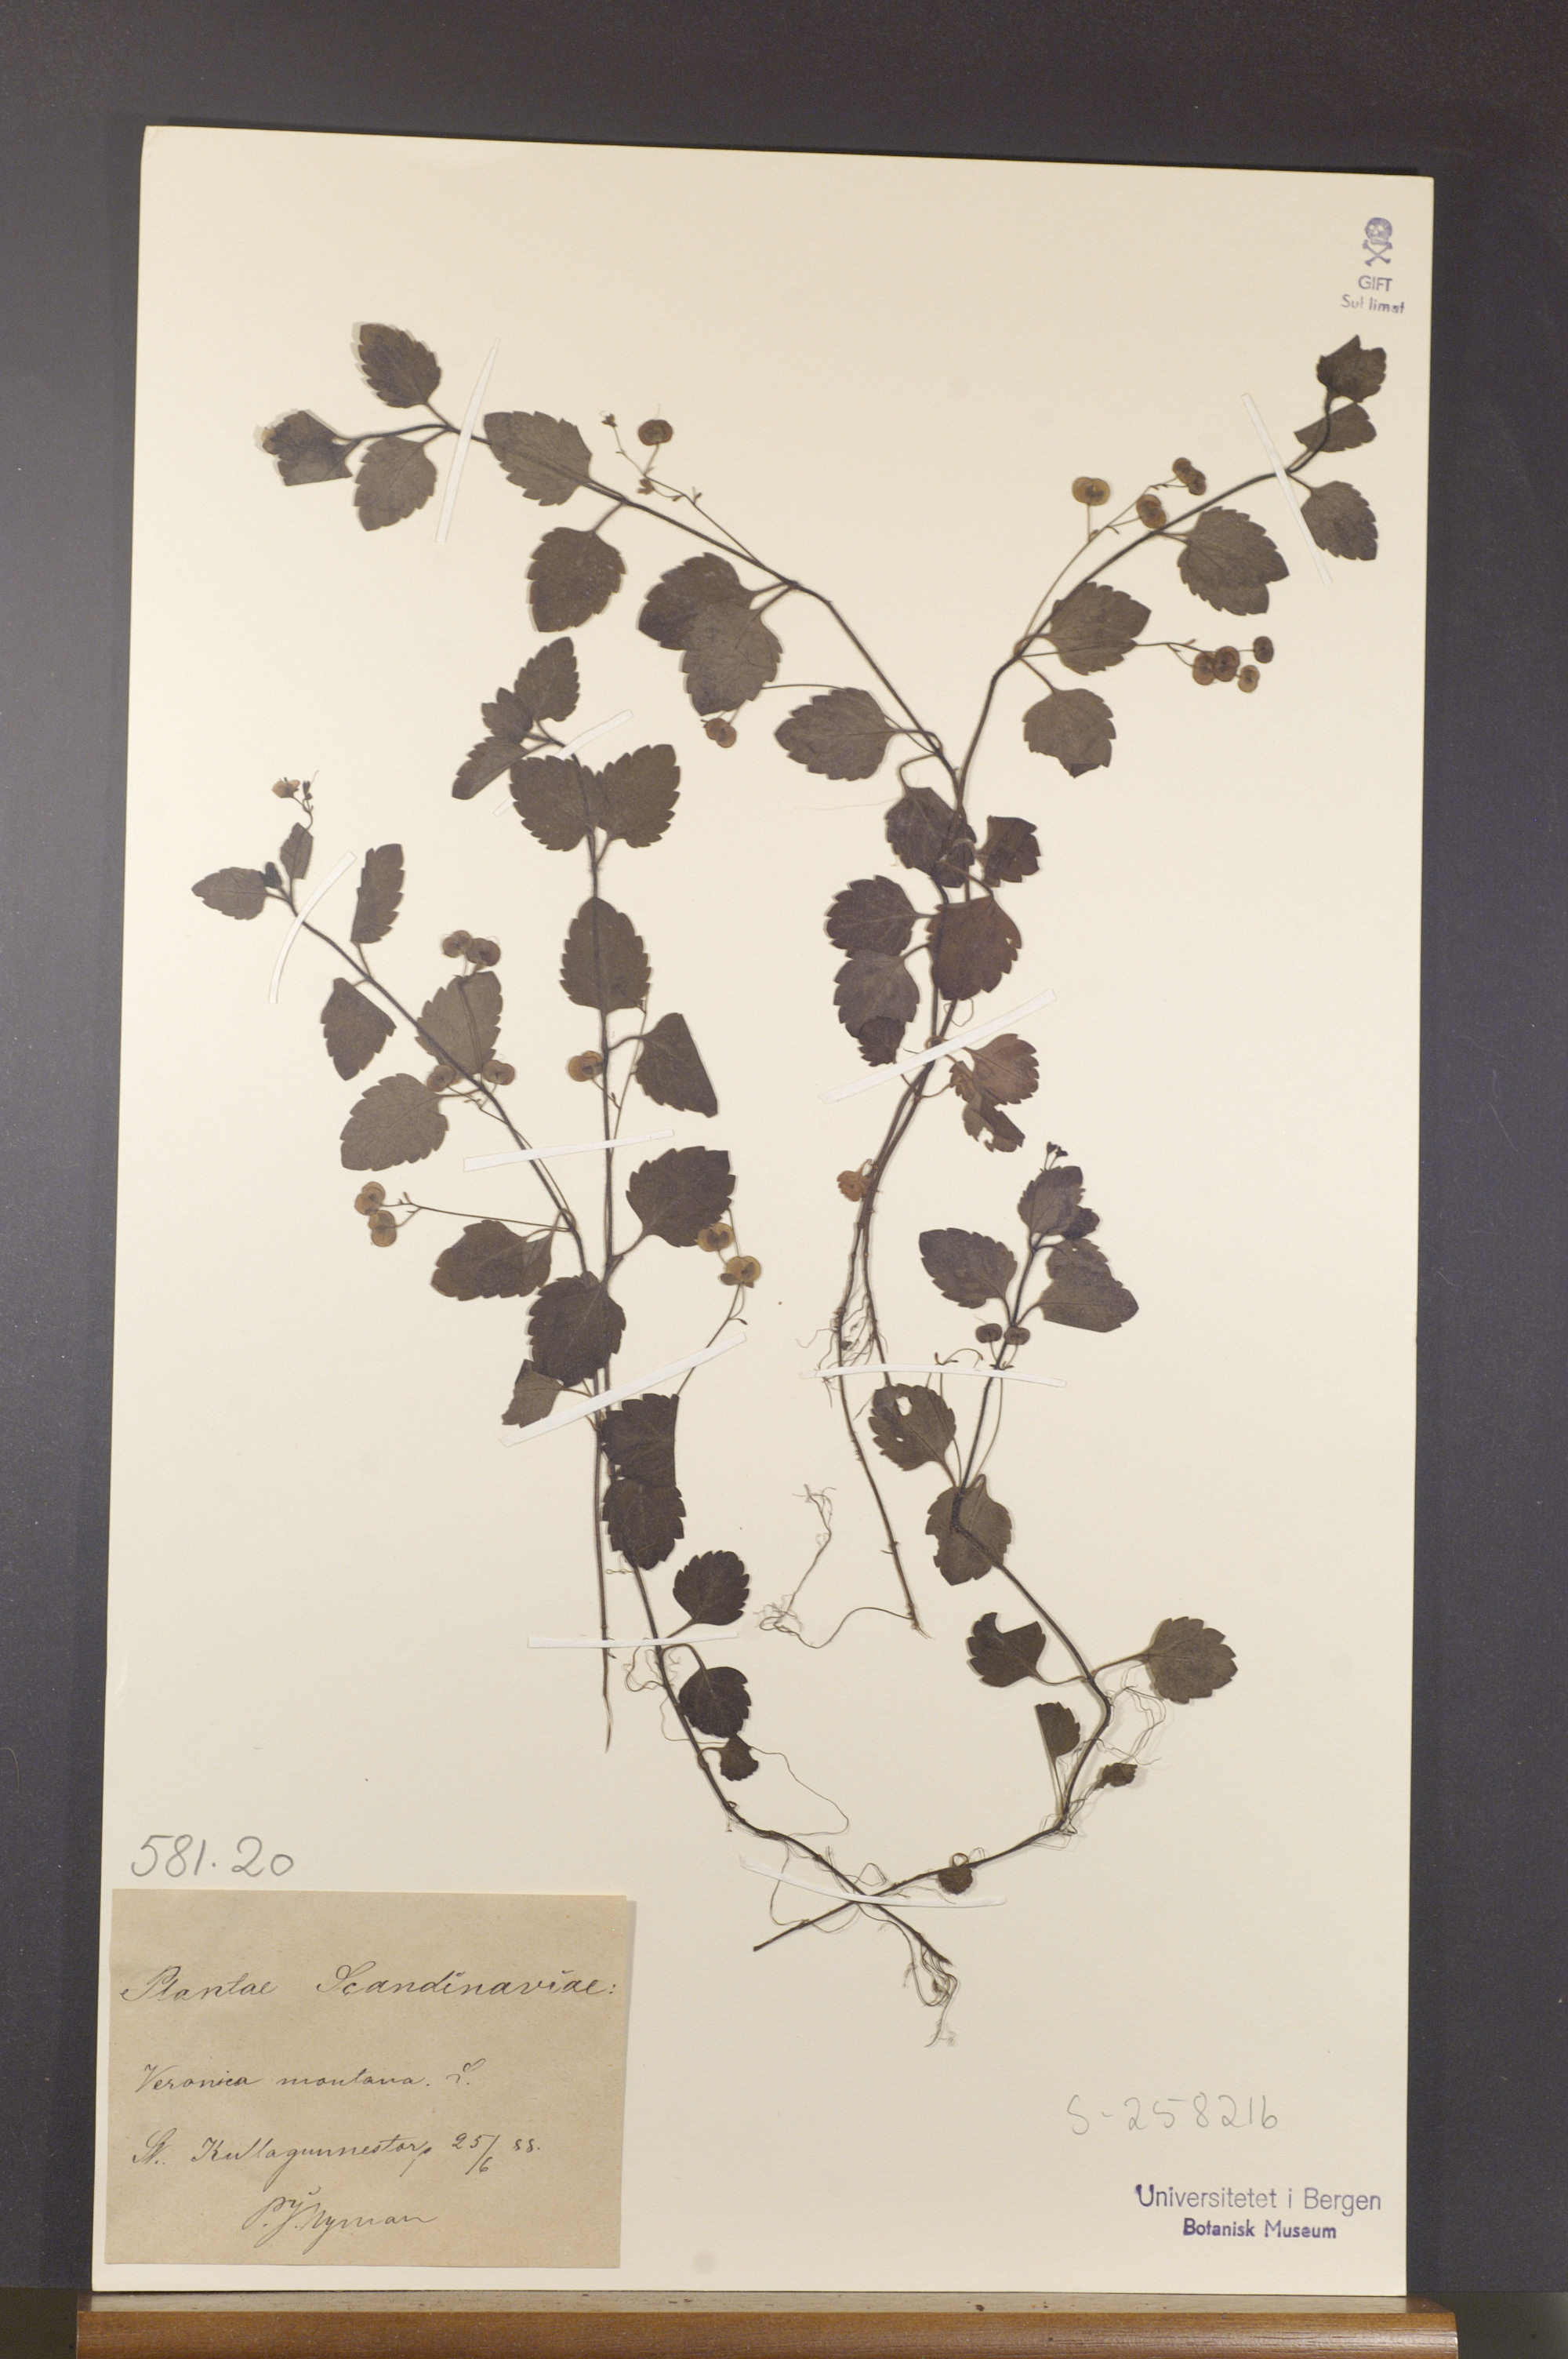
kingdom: Plantae
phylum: Tracheophyta
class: Magnoliopsida
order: Lamiales
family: Plantaginaceae
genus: Veronica
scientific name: Veronica montana
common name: Wood speedwell
